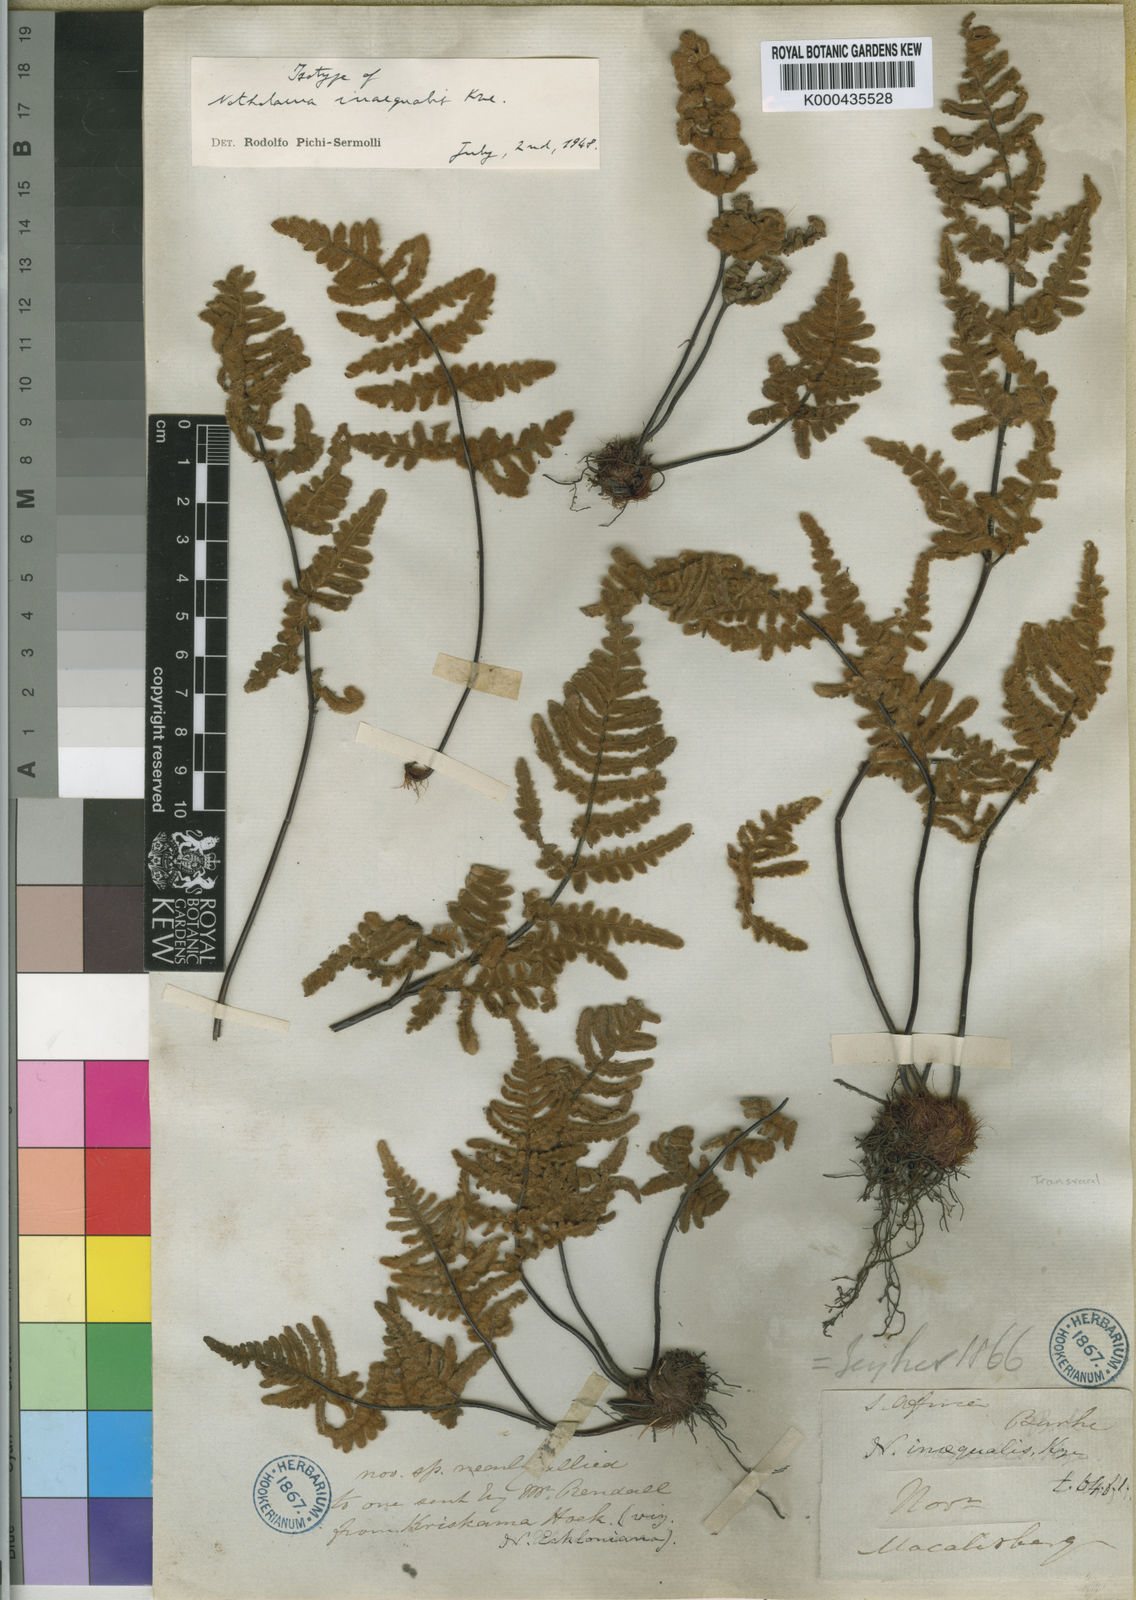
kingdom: Plantae
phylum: Tracheophyta
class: Polypodiopsida
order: Polypodiales
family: Pteridaceae
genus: Cheilanthes
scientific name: Cheilanthes inaequalis
